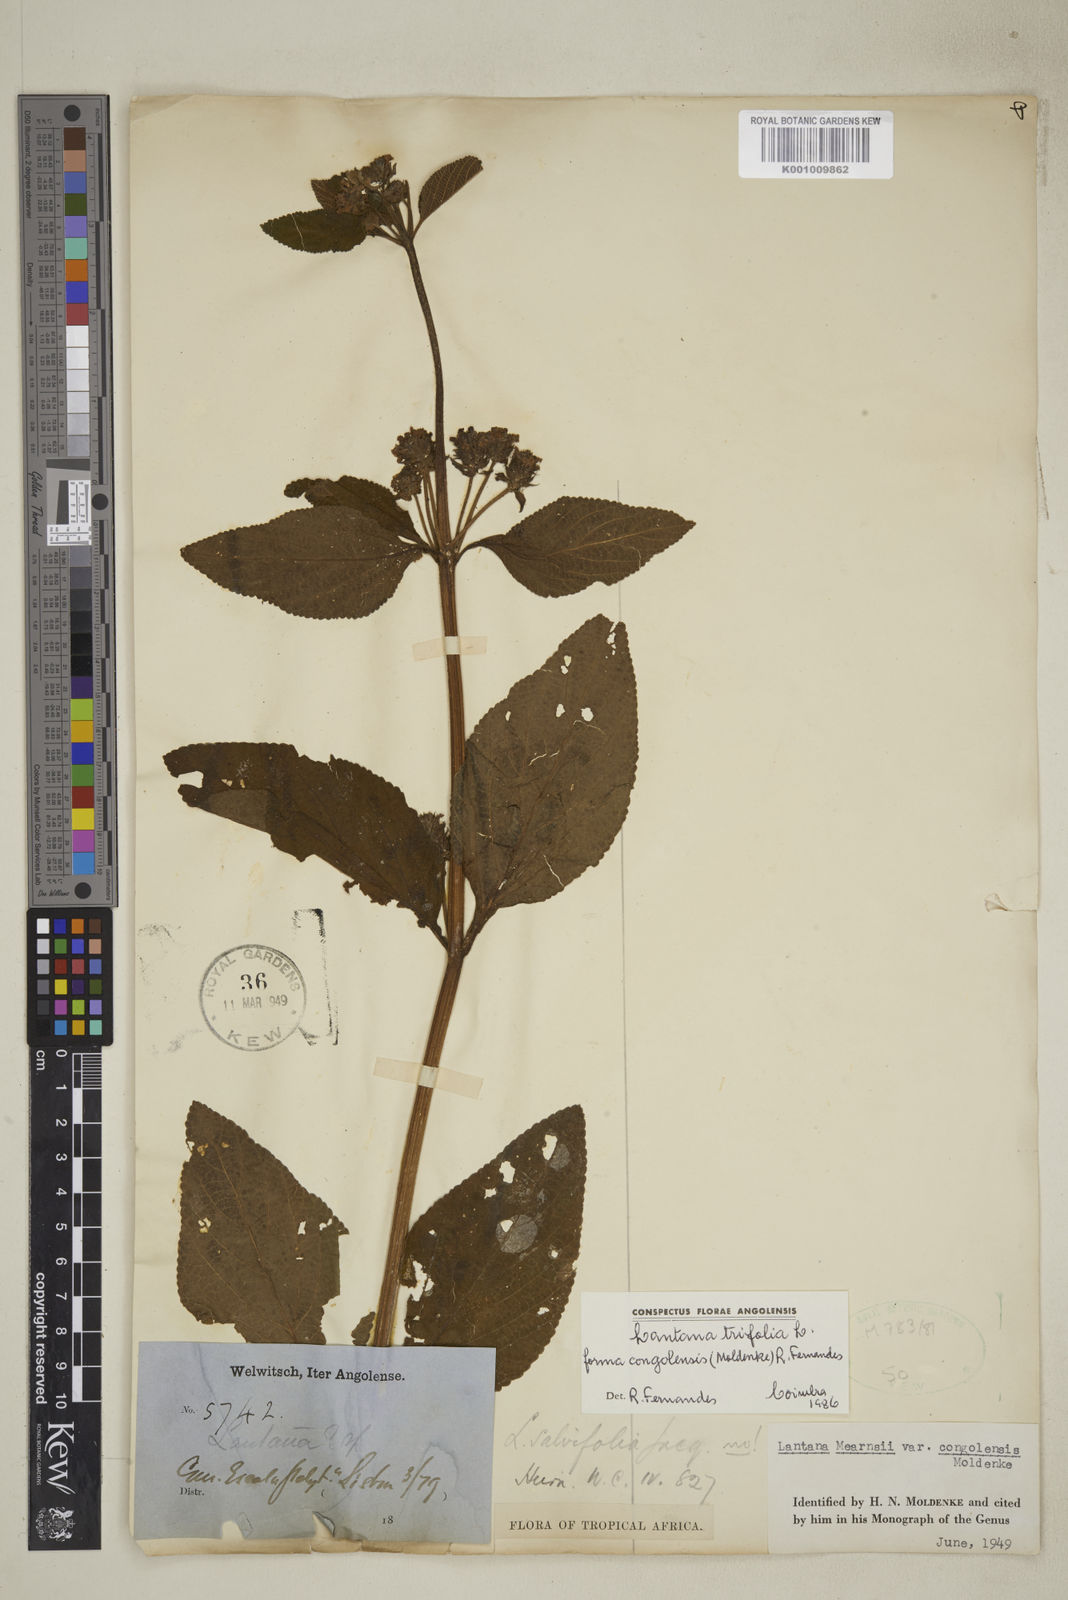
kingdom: Plantae
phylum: Tracheophyta
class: Magnoliopsida
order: Lamiales
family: Verbenaceae
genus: Lantana
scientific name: Lantana trifolia
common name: Sweet-sage
